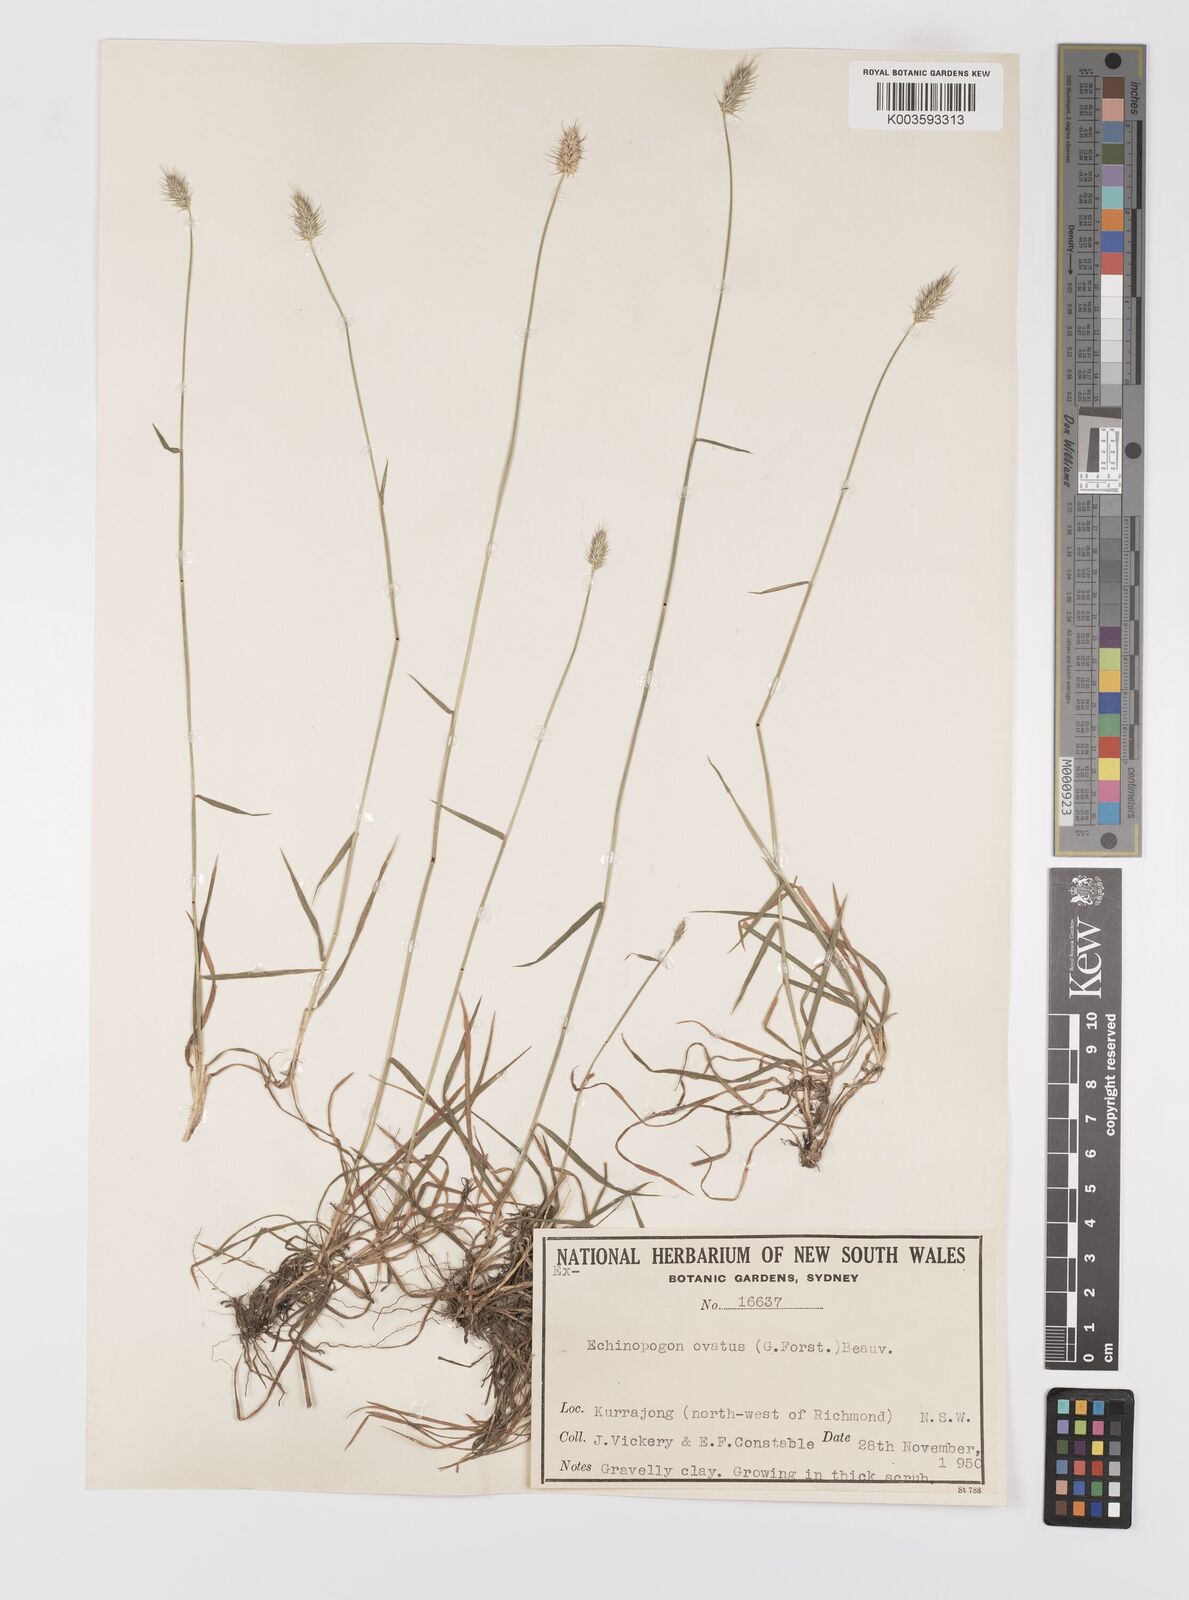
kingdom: Plantae
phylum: Tracheophyta
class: Liliopsida
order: Poales
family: Poaceae
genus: Echinopogon
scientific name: Echinopogon ovatus
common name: Hedgehog-grass
